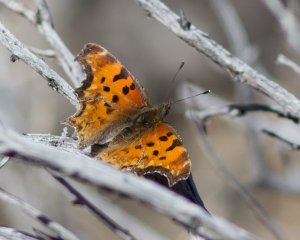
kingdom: Animalia
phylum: Arthropoda
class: Insecta
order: Lepidoptera
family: Nymphalidae
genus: Polygonia
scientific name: Polygonia gracilis
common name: Hoary Comma
